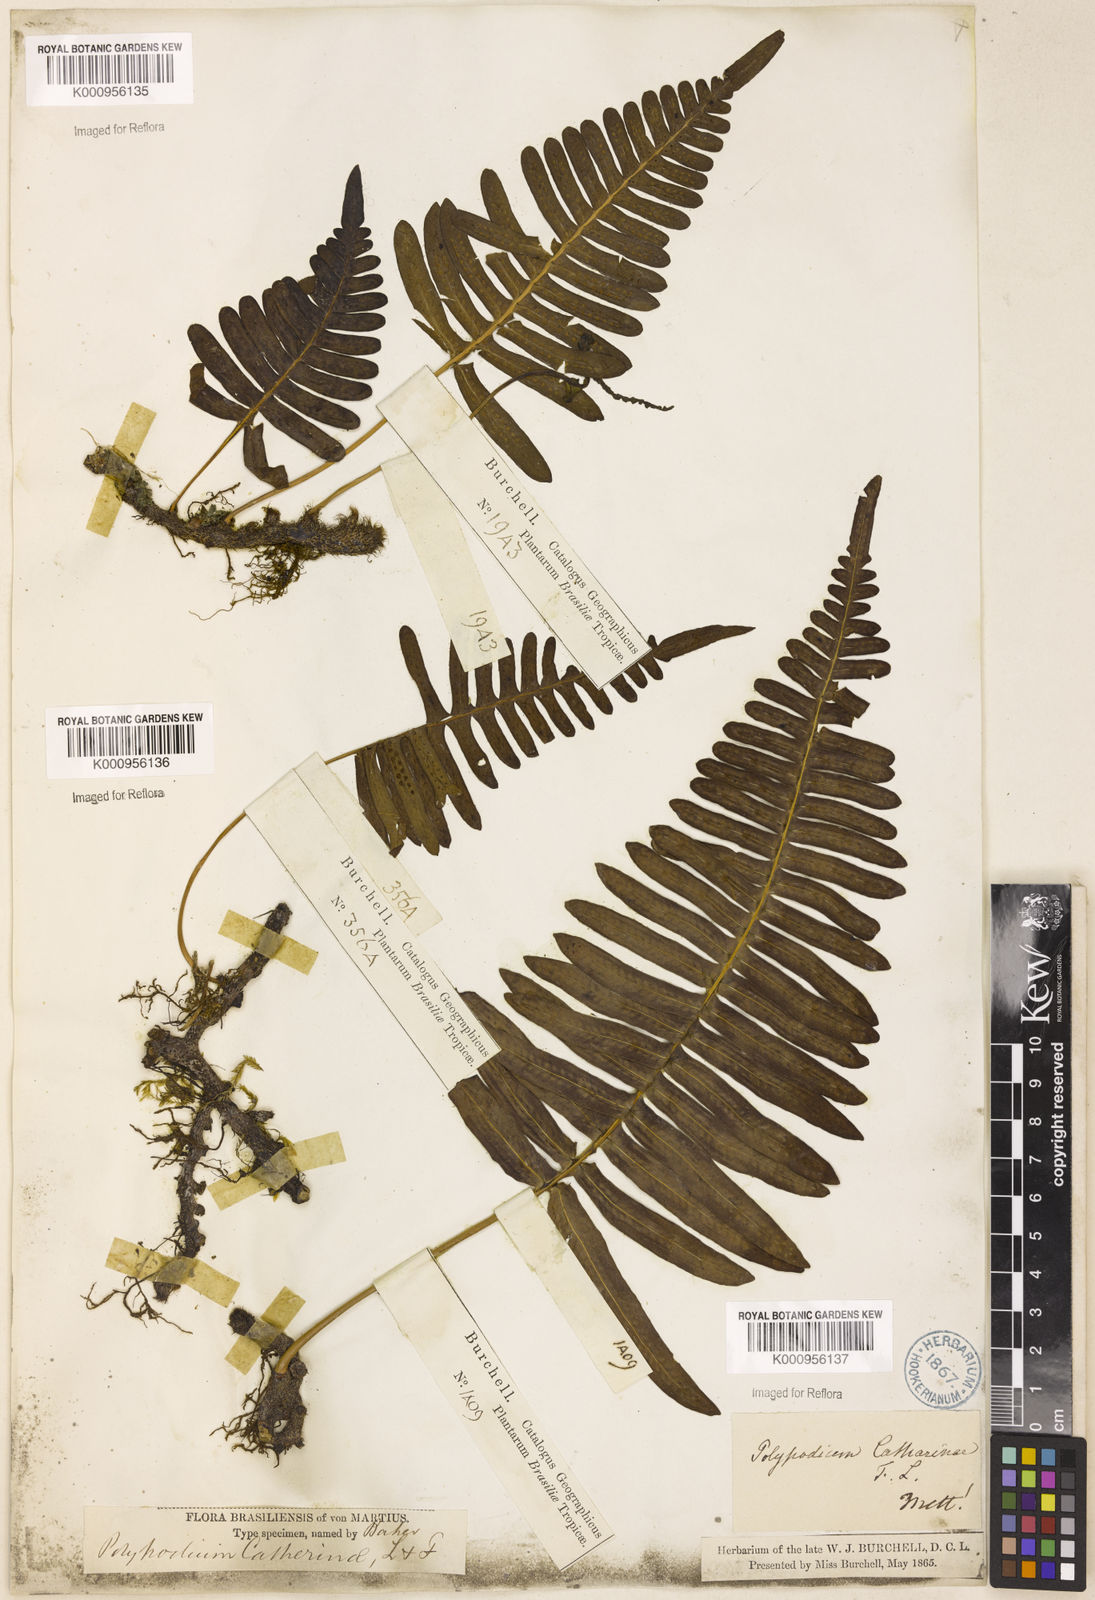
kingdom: Plantae
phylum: Tracheophyta
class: Polypodiopsida
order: Polypodiales
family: Polypodiaceae
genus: Serpocaulon
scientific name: Serpocaulon catharinae
